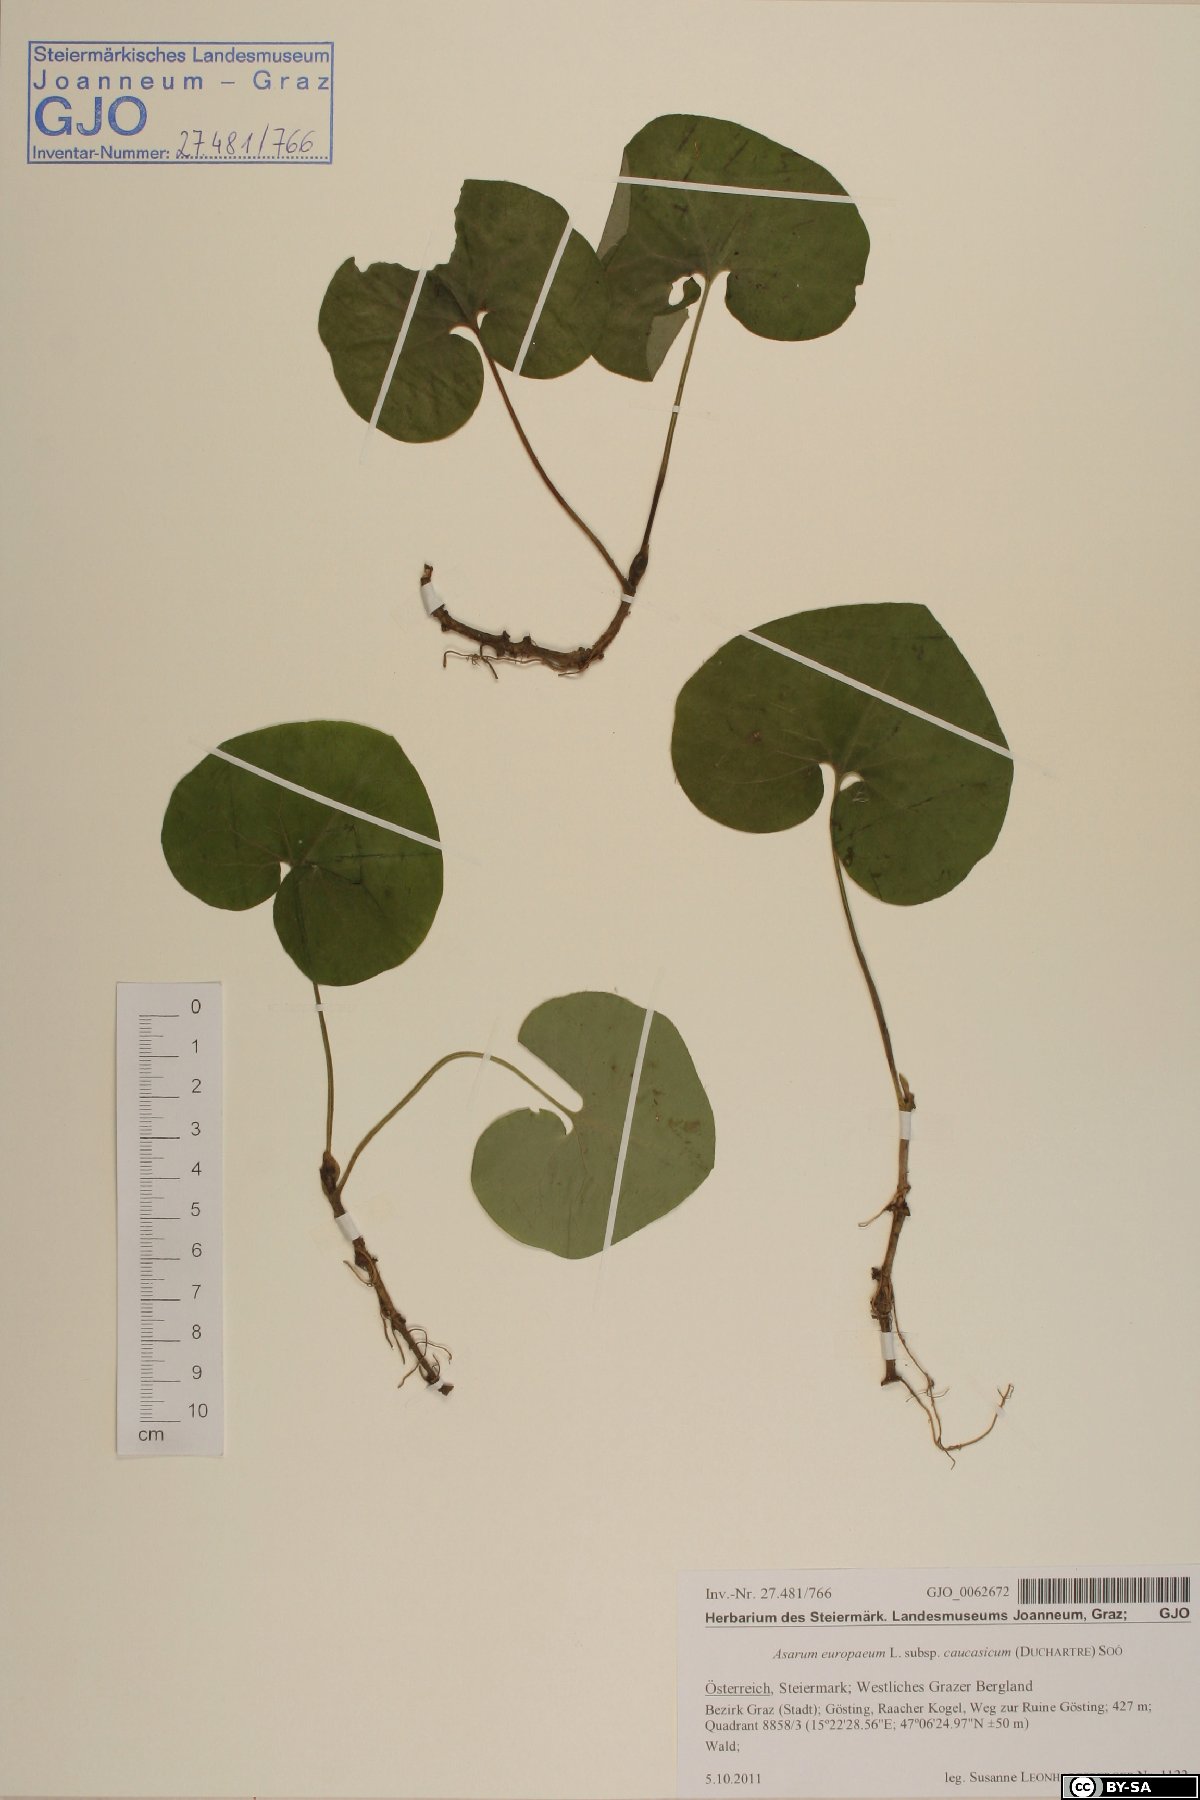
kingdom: Plantae
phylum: Tracheophyta
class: Magnoliopsida
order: Piperales
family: Aristolochiaceae
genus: Asarum
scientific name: Asarum europaeum
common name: Asarabacca
